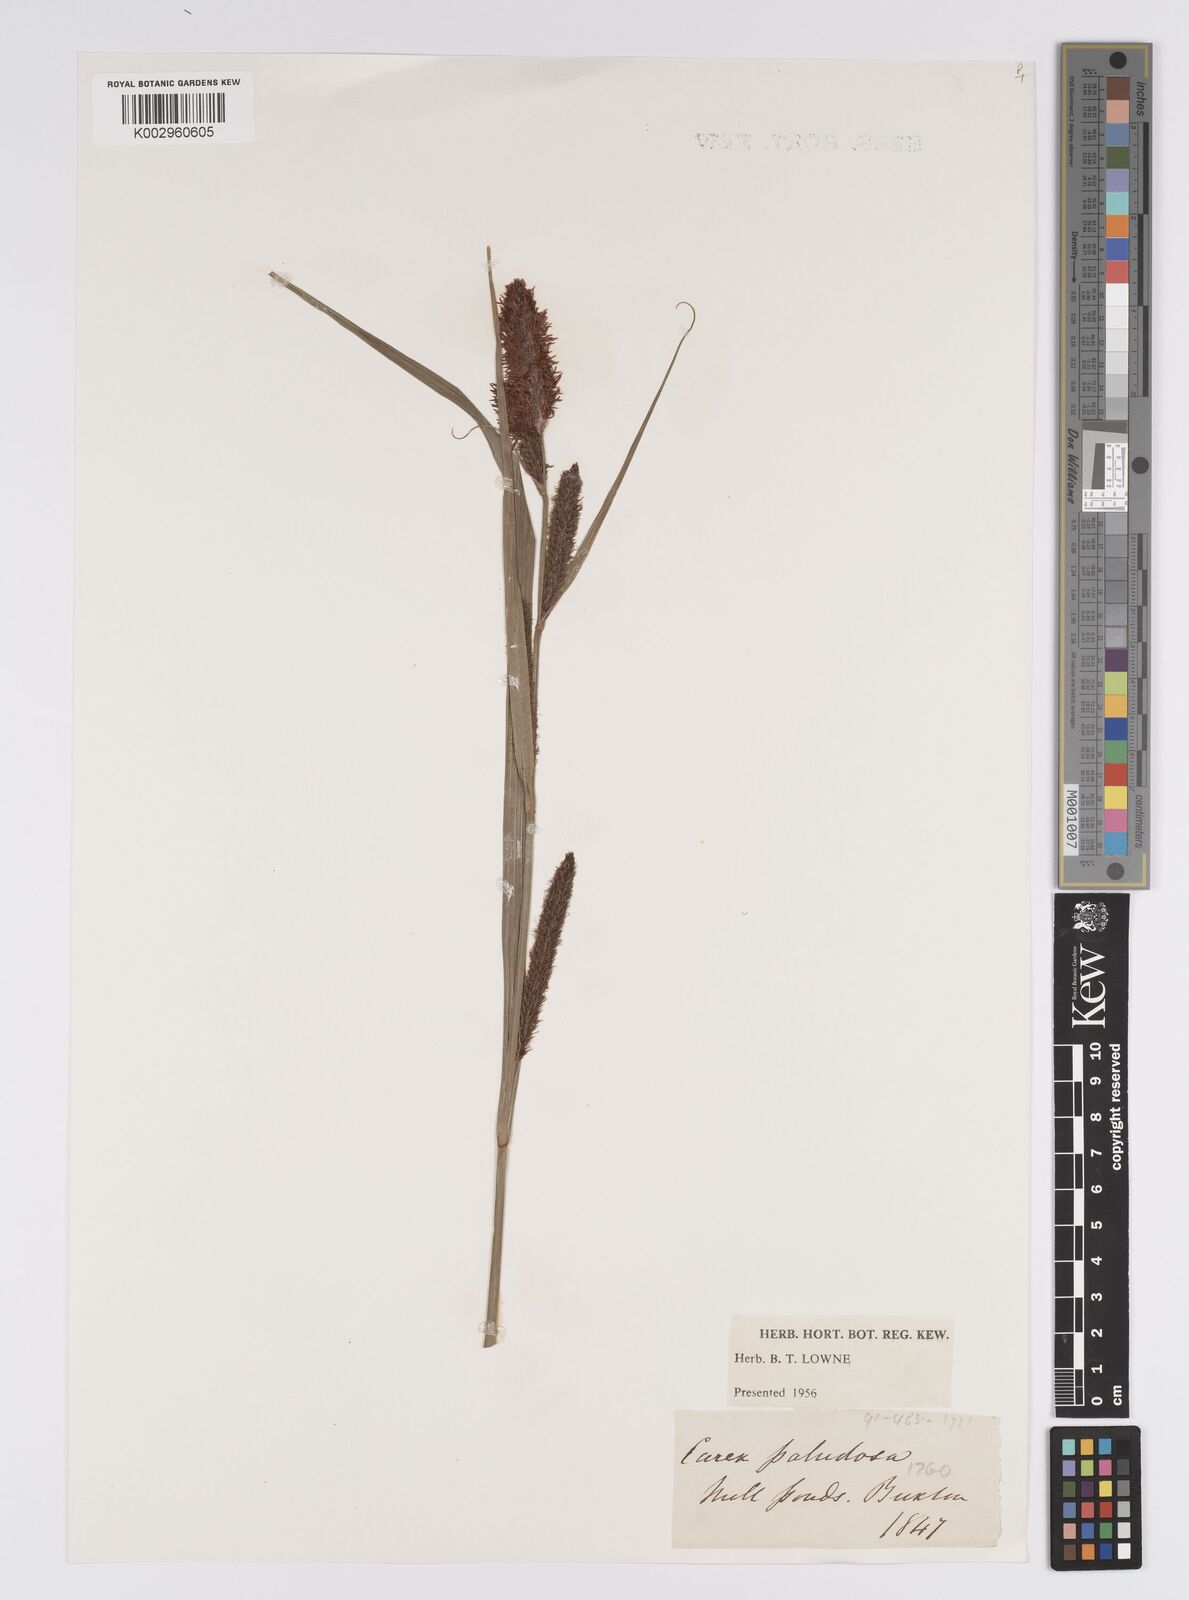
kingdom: Plantae
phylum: Tracheophyta
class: Liliopsida
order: Poales
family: Cyperaceae
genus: Carex
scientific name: Carex acutiformis
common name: Lesser pond-sedge
